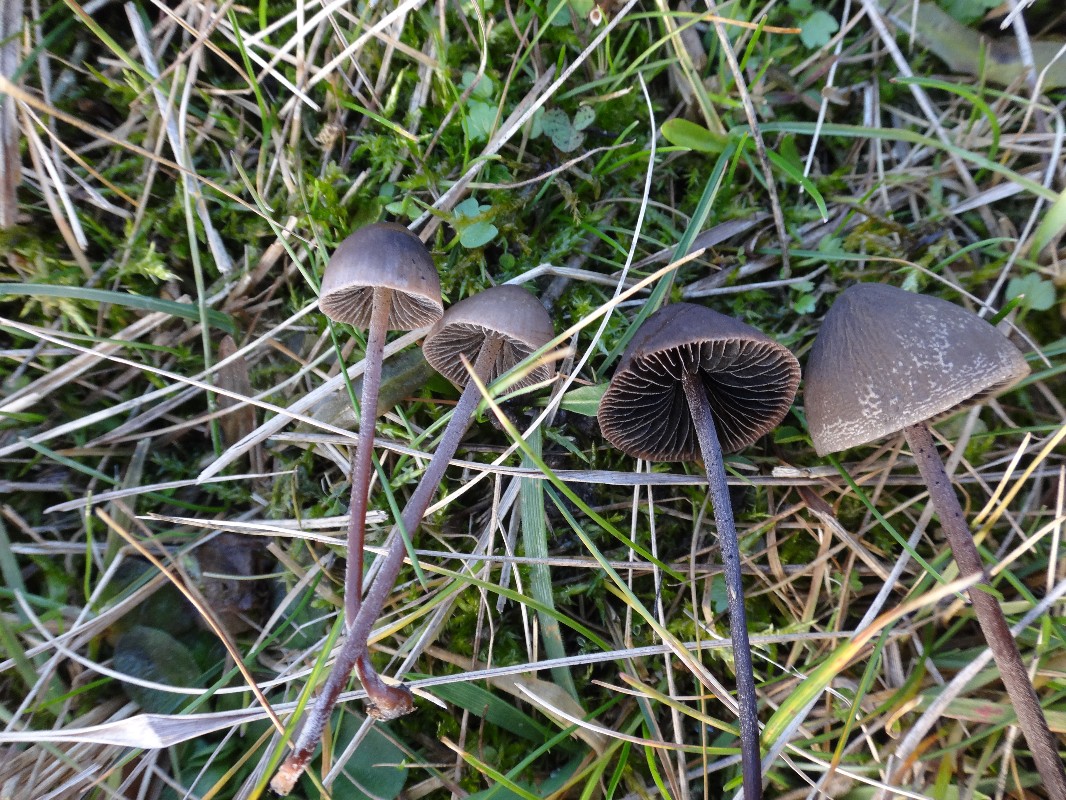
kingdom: Fungi
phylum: Basidiomycota
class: Agaricomycetes
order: Agaricales
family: Bolbitiaceae
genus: Panaeolus
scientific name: Panaeolus acuminatus
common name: høj glanshat
